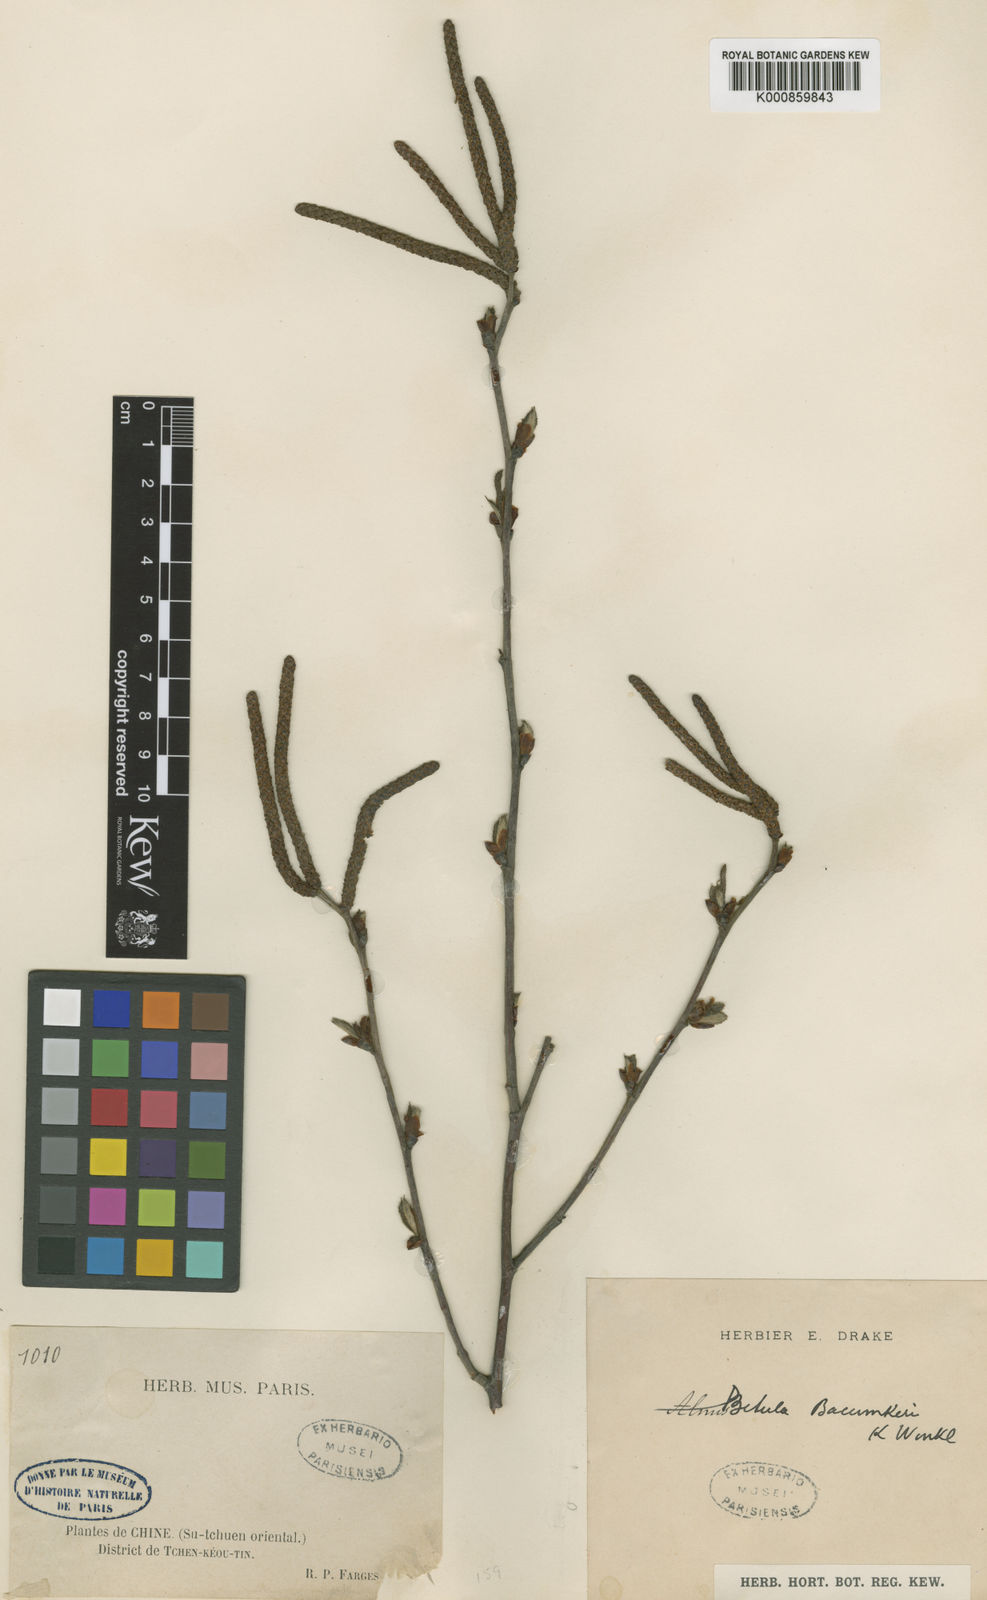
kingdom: Plantae
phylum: Tracheophyta
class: Magnoliopsida
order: Fagales
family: Betulaceae
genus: Betula
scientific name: Betula luminifera
